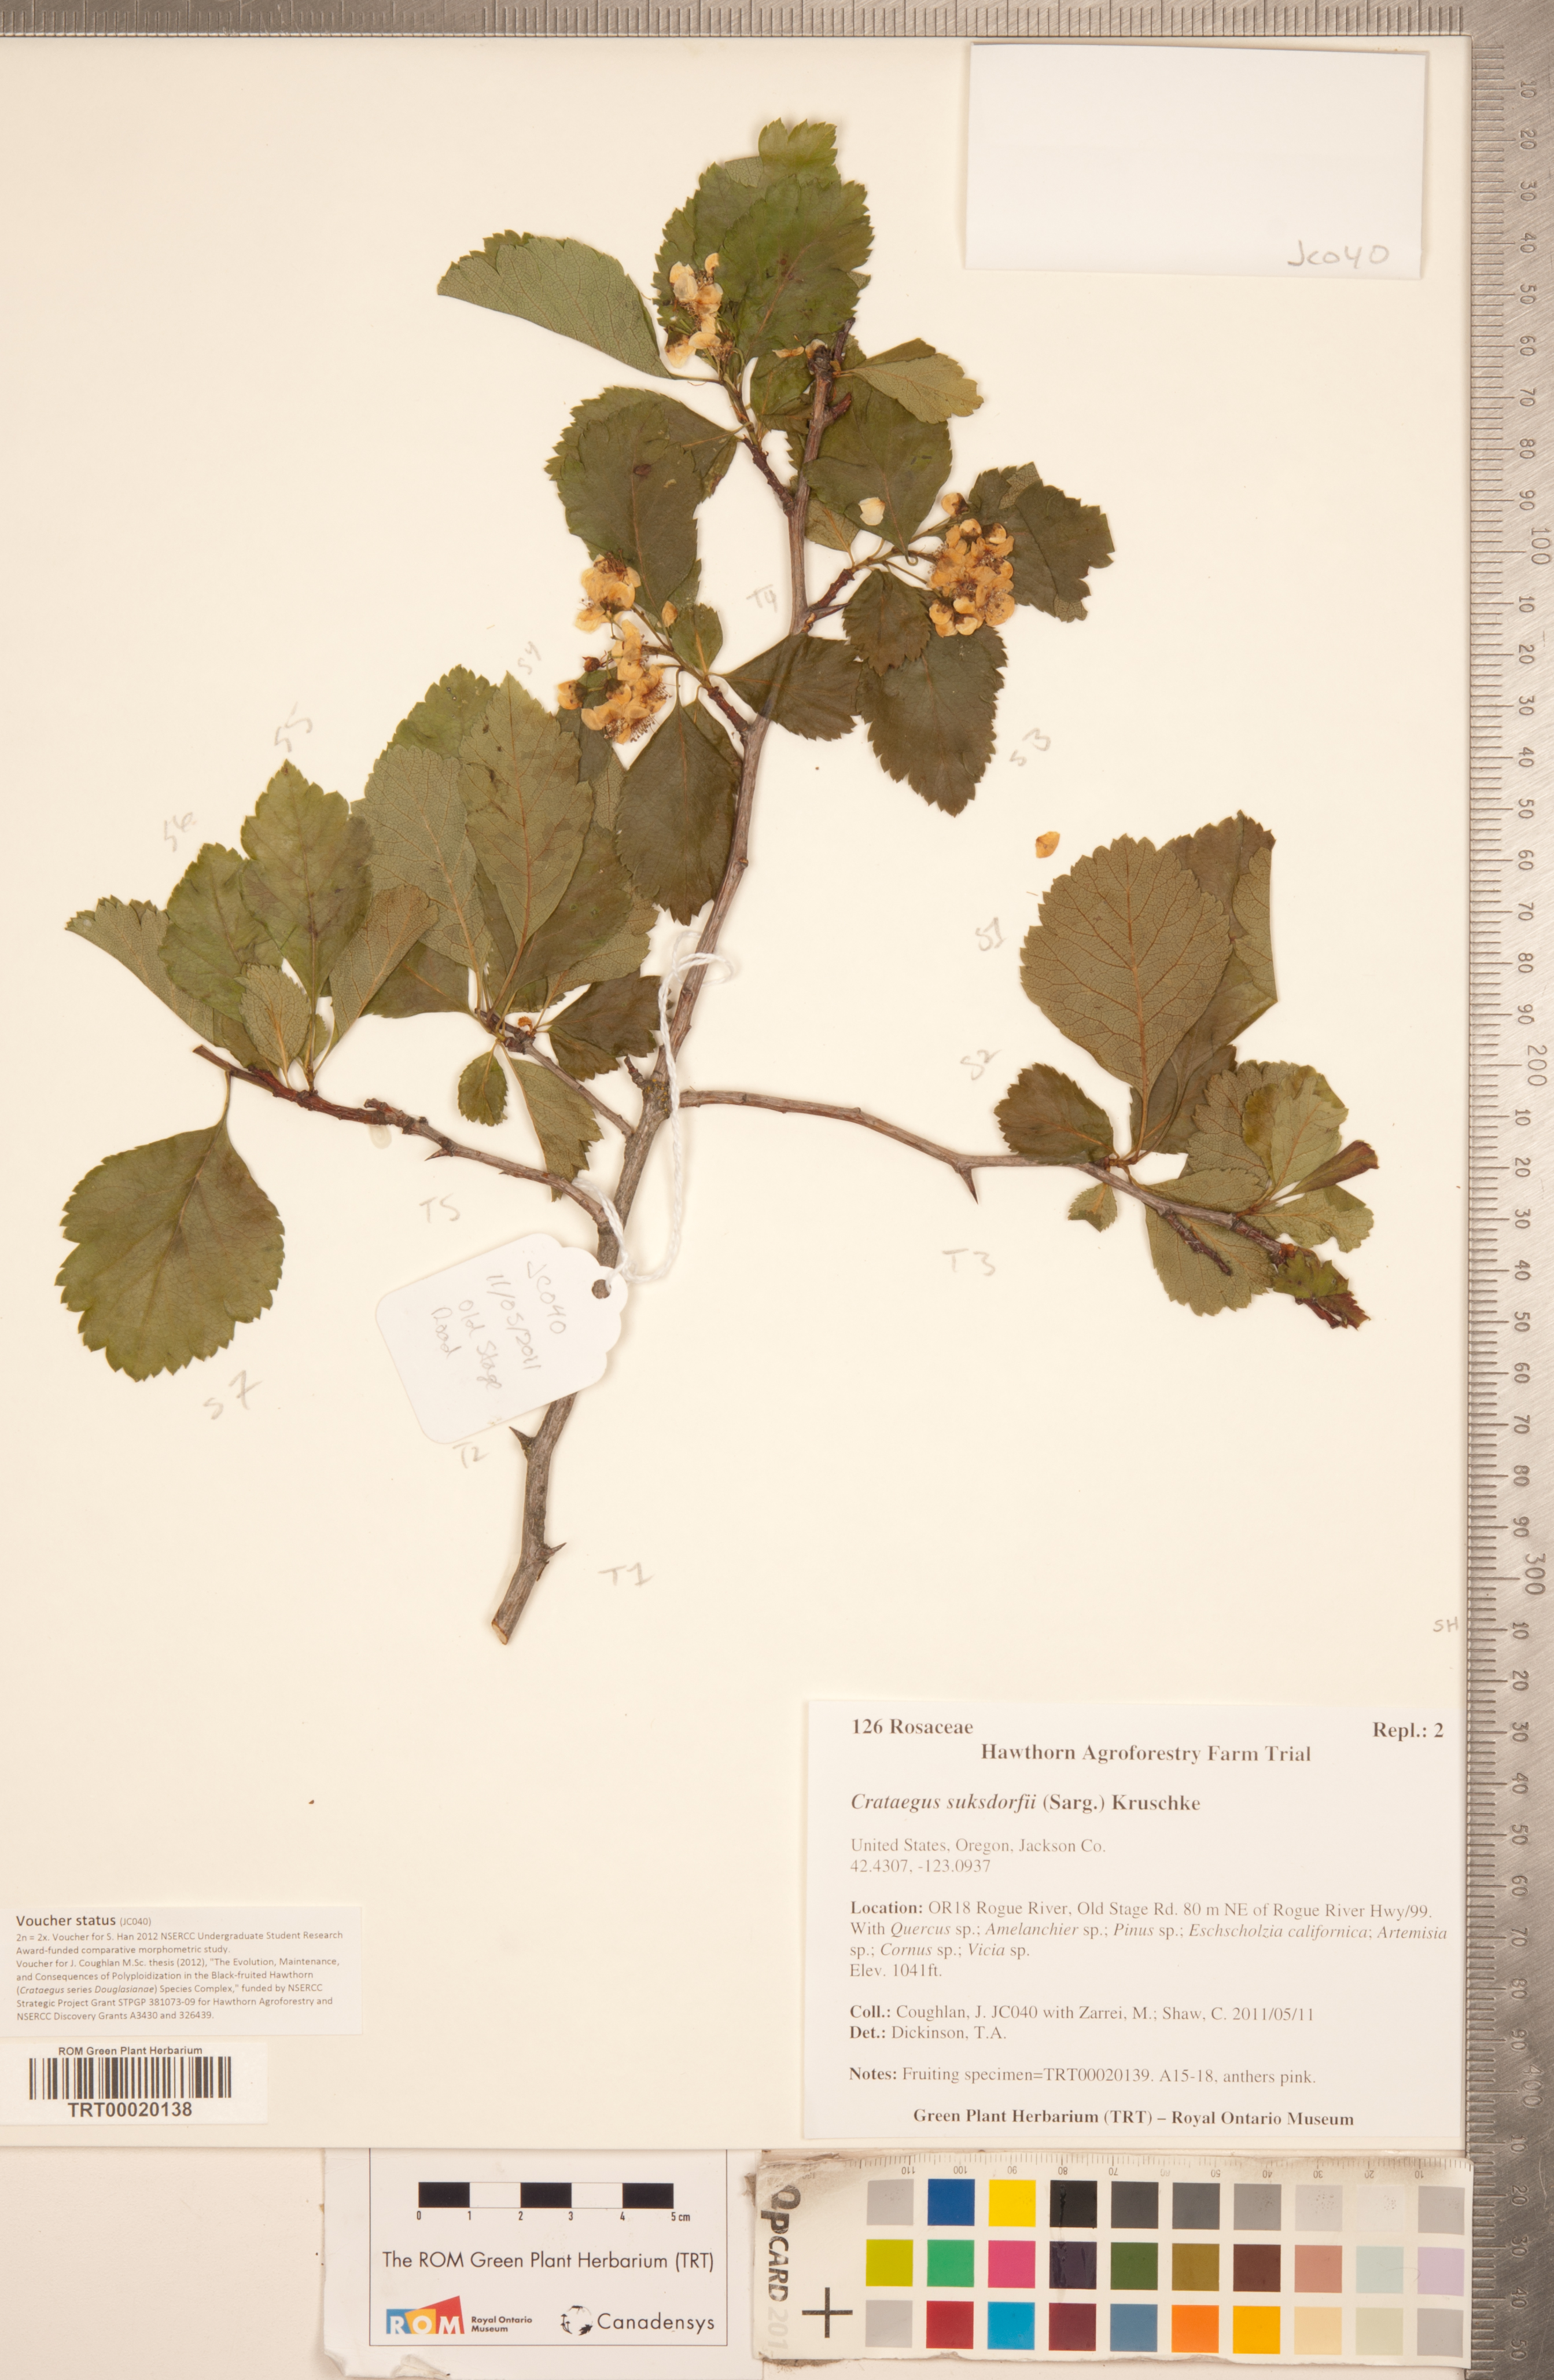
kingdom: Plantae
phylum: Tracheophyta
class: Magnoliopsida
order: Rosales
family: Rosaceae
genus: Crataegus
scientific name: Crataegus gaylussacia
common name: Huckleberry hawthorn
